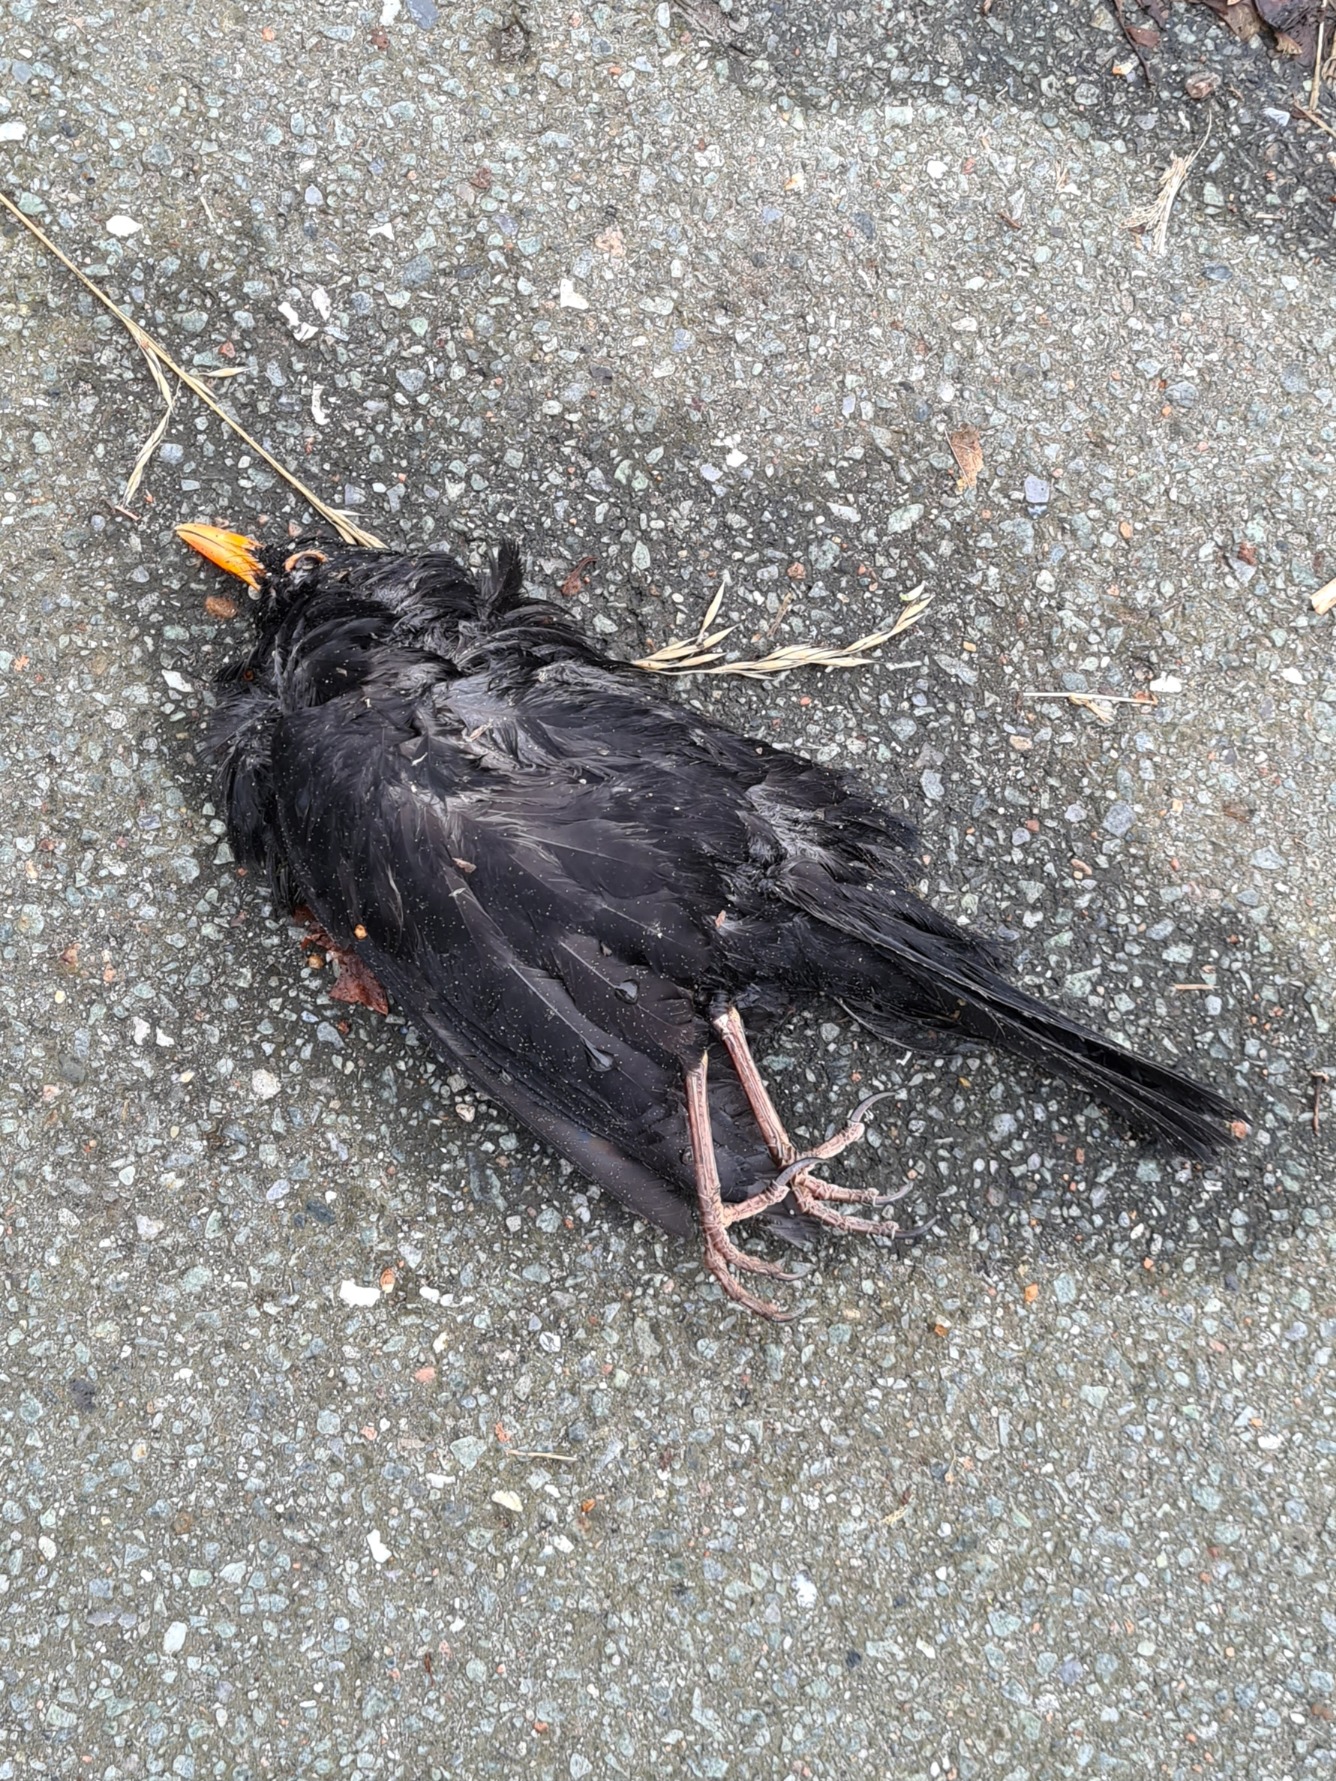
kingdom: Animalia
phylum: Chordata
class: Aves
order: Passeriformes
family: Turdidae
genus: Turdus
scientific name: Turdus merula
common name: Solsort
